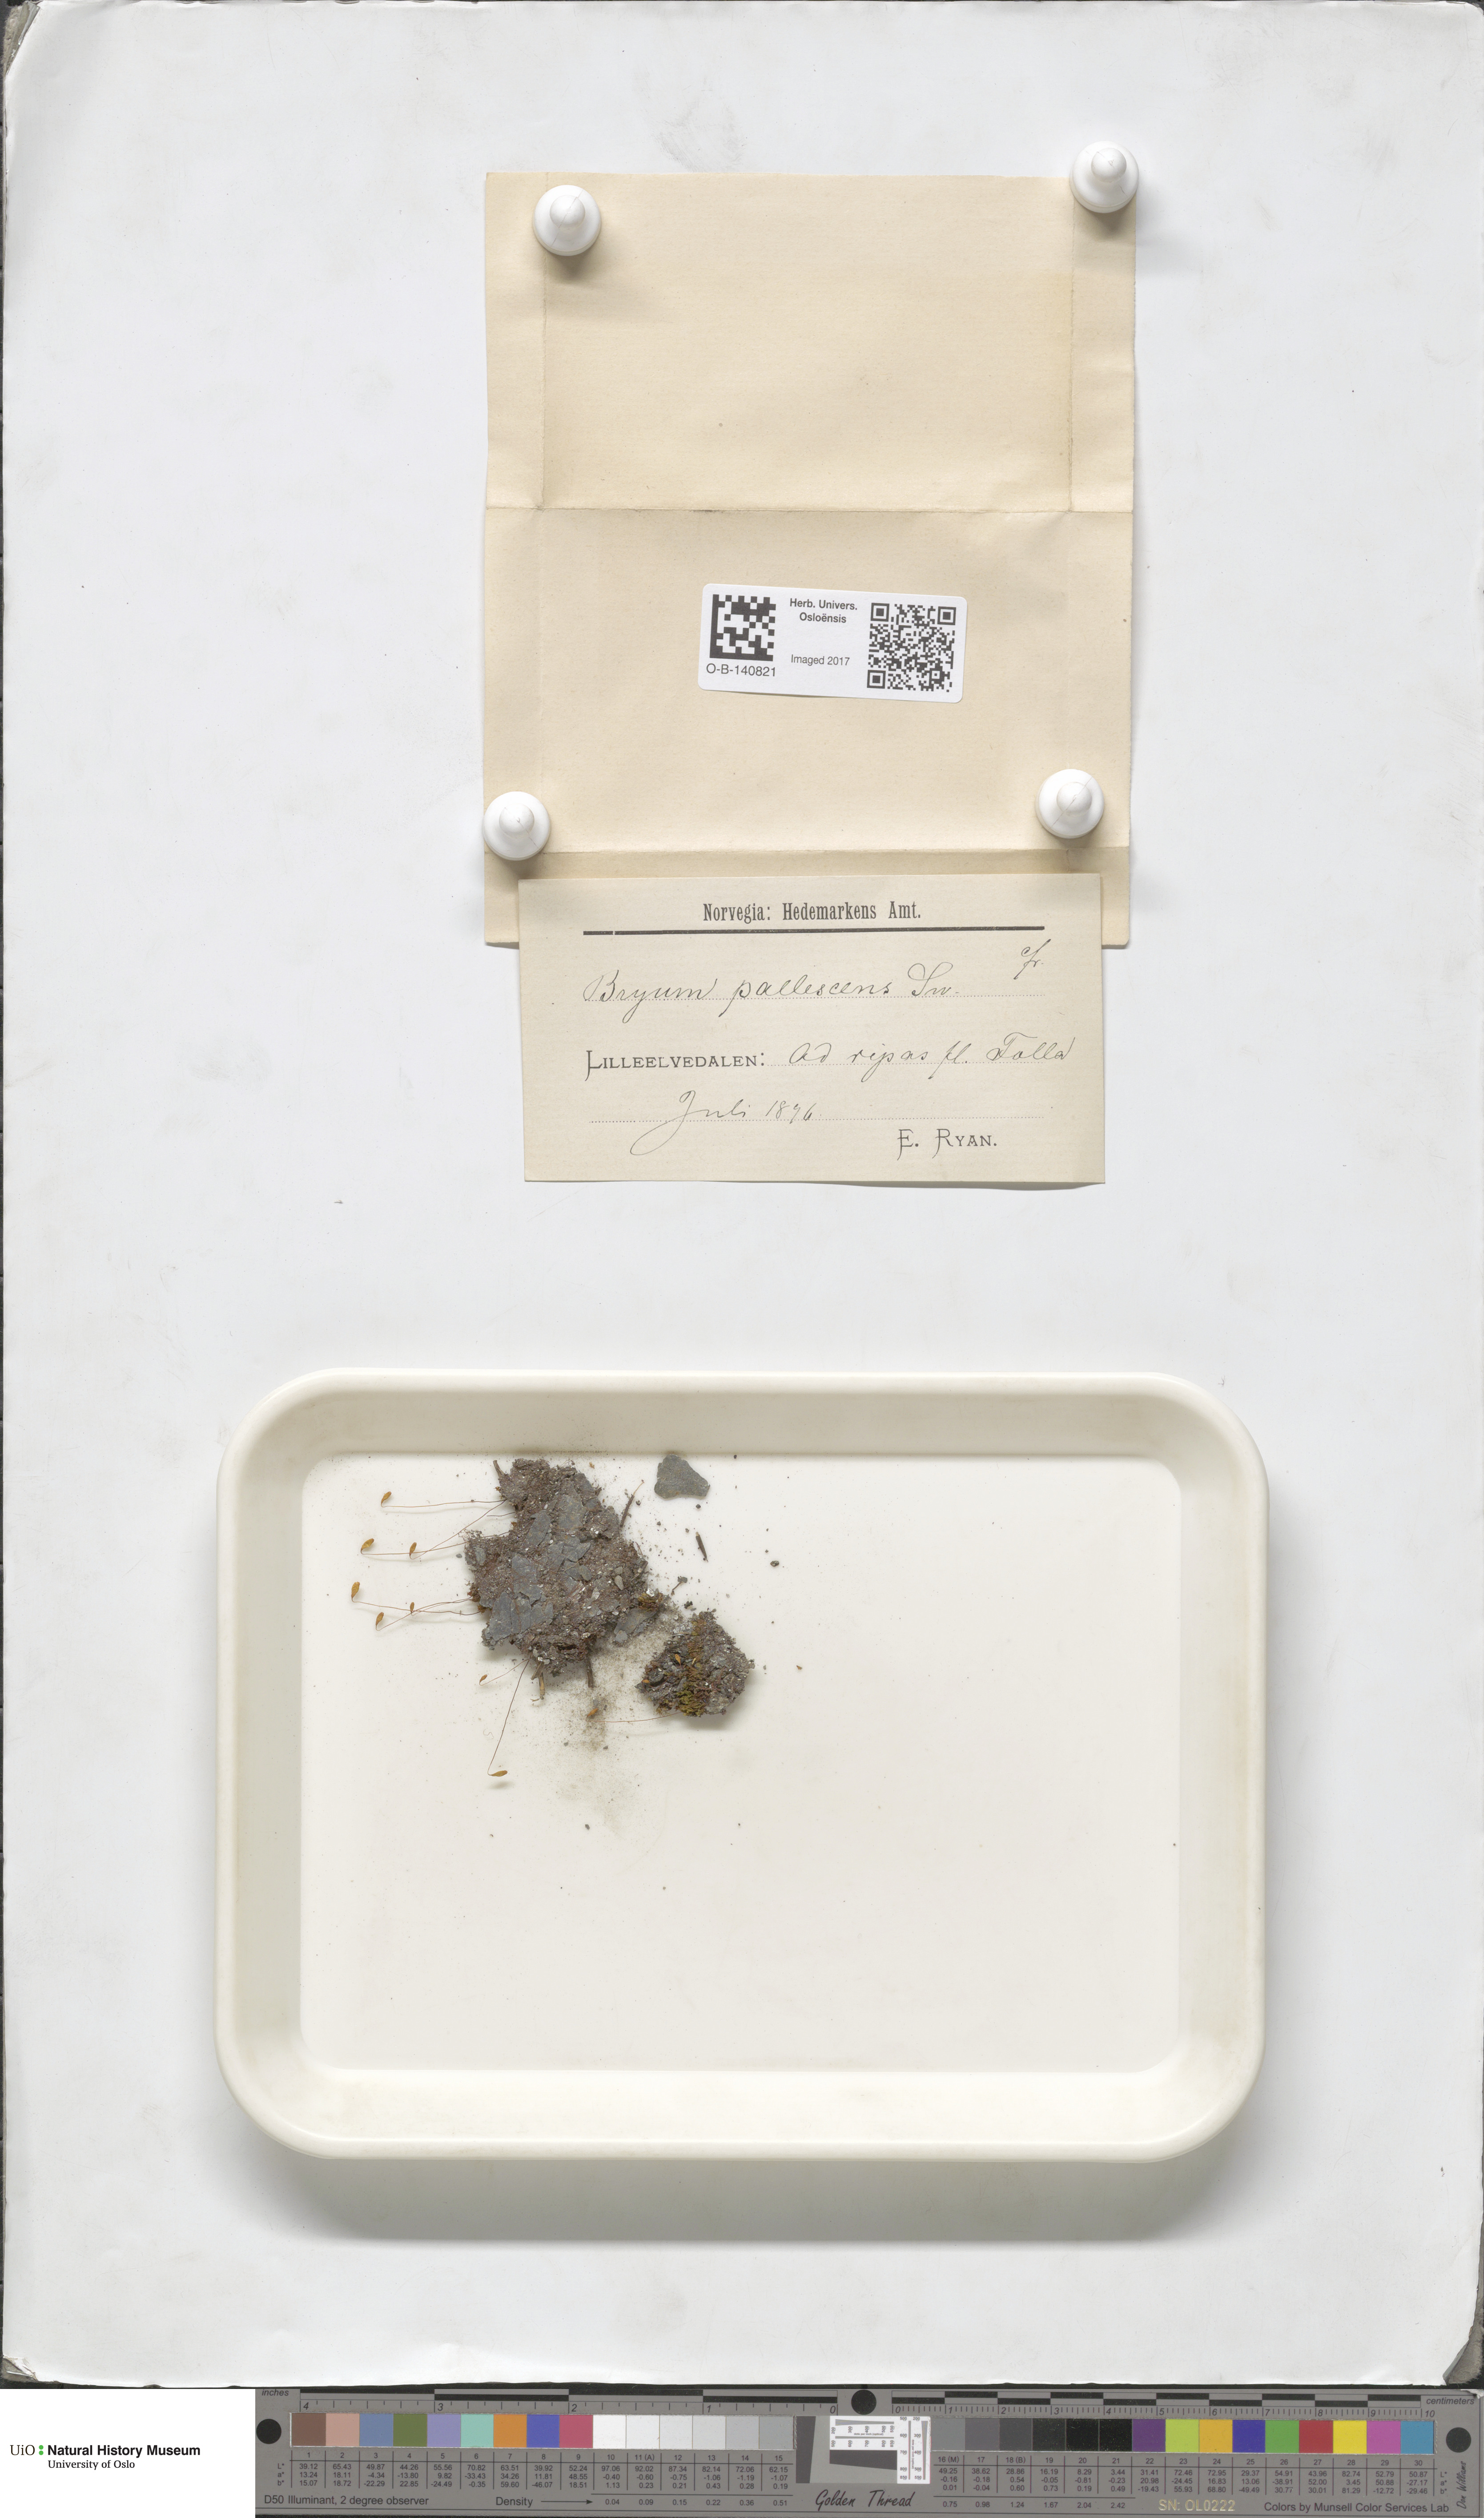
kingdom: Plantae
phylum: Bryophyta
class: Bryopsida
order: Bryales
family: Bryaceae
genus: Ptychostomum
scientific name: Ptychostomum pallescens
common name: Tall-clustered thread-moss
